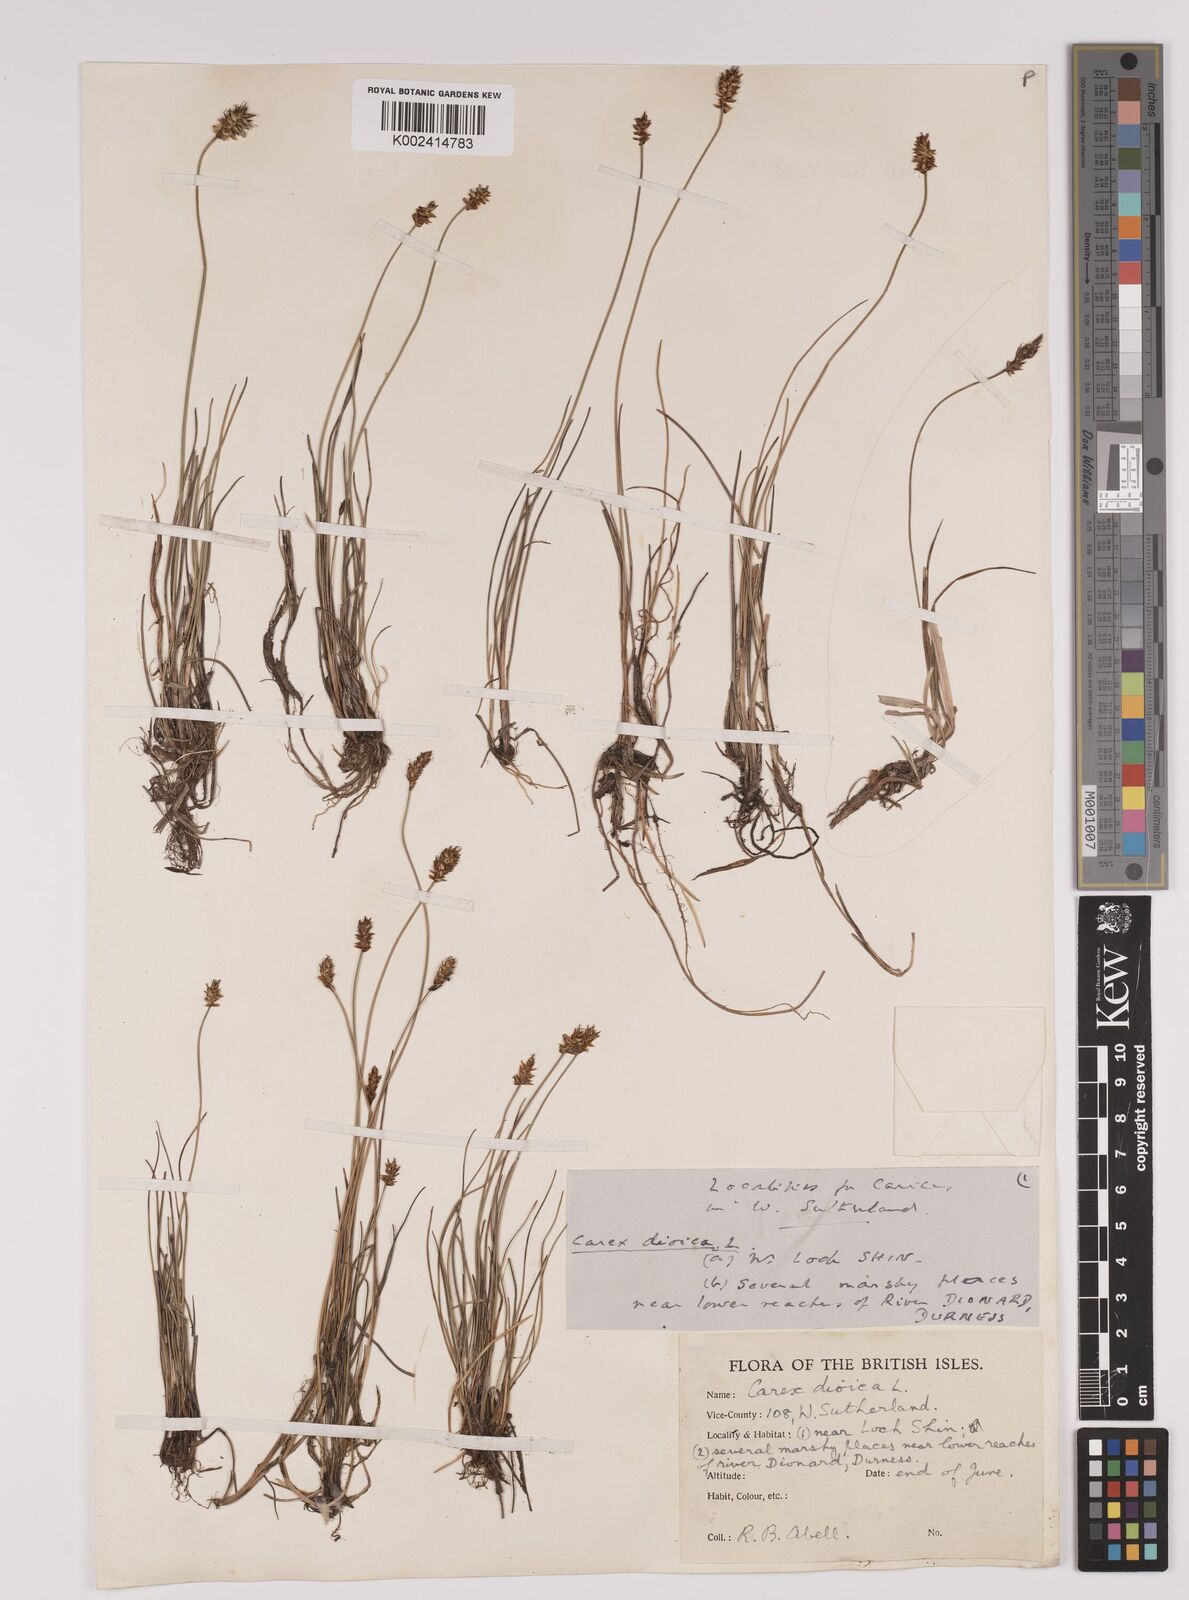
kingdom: Plantae
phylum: Tracheophyta
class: Liliopsida
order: Poales
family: Cyperaceae
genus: Carex
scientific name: Carex dioica
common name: Dioecious sedge
